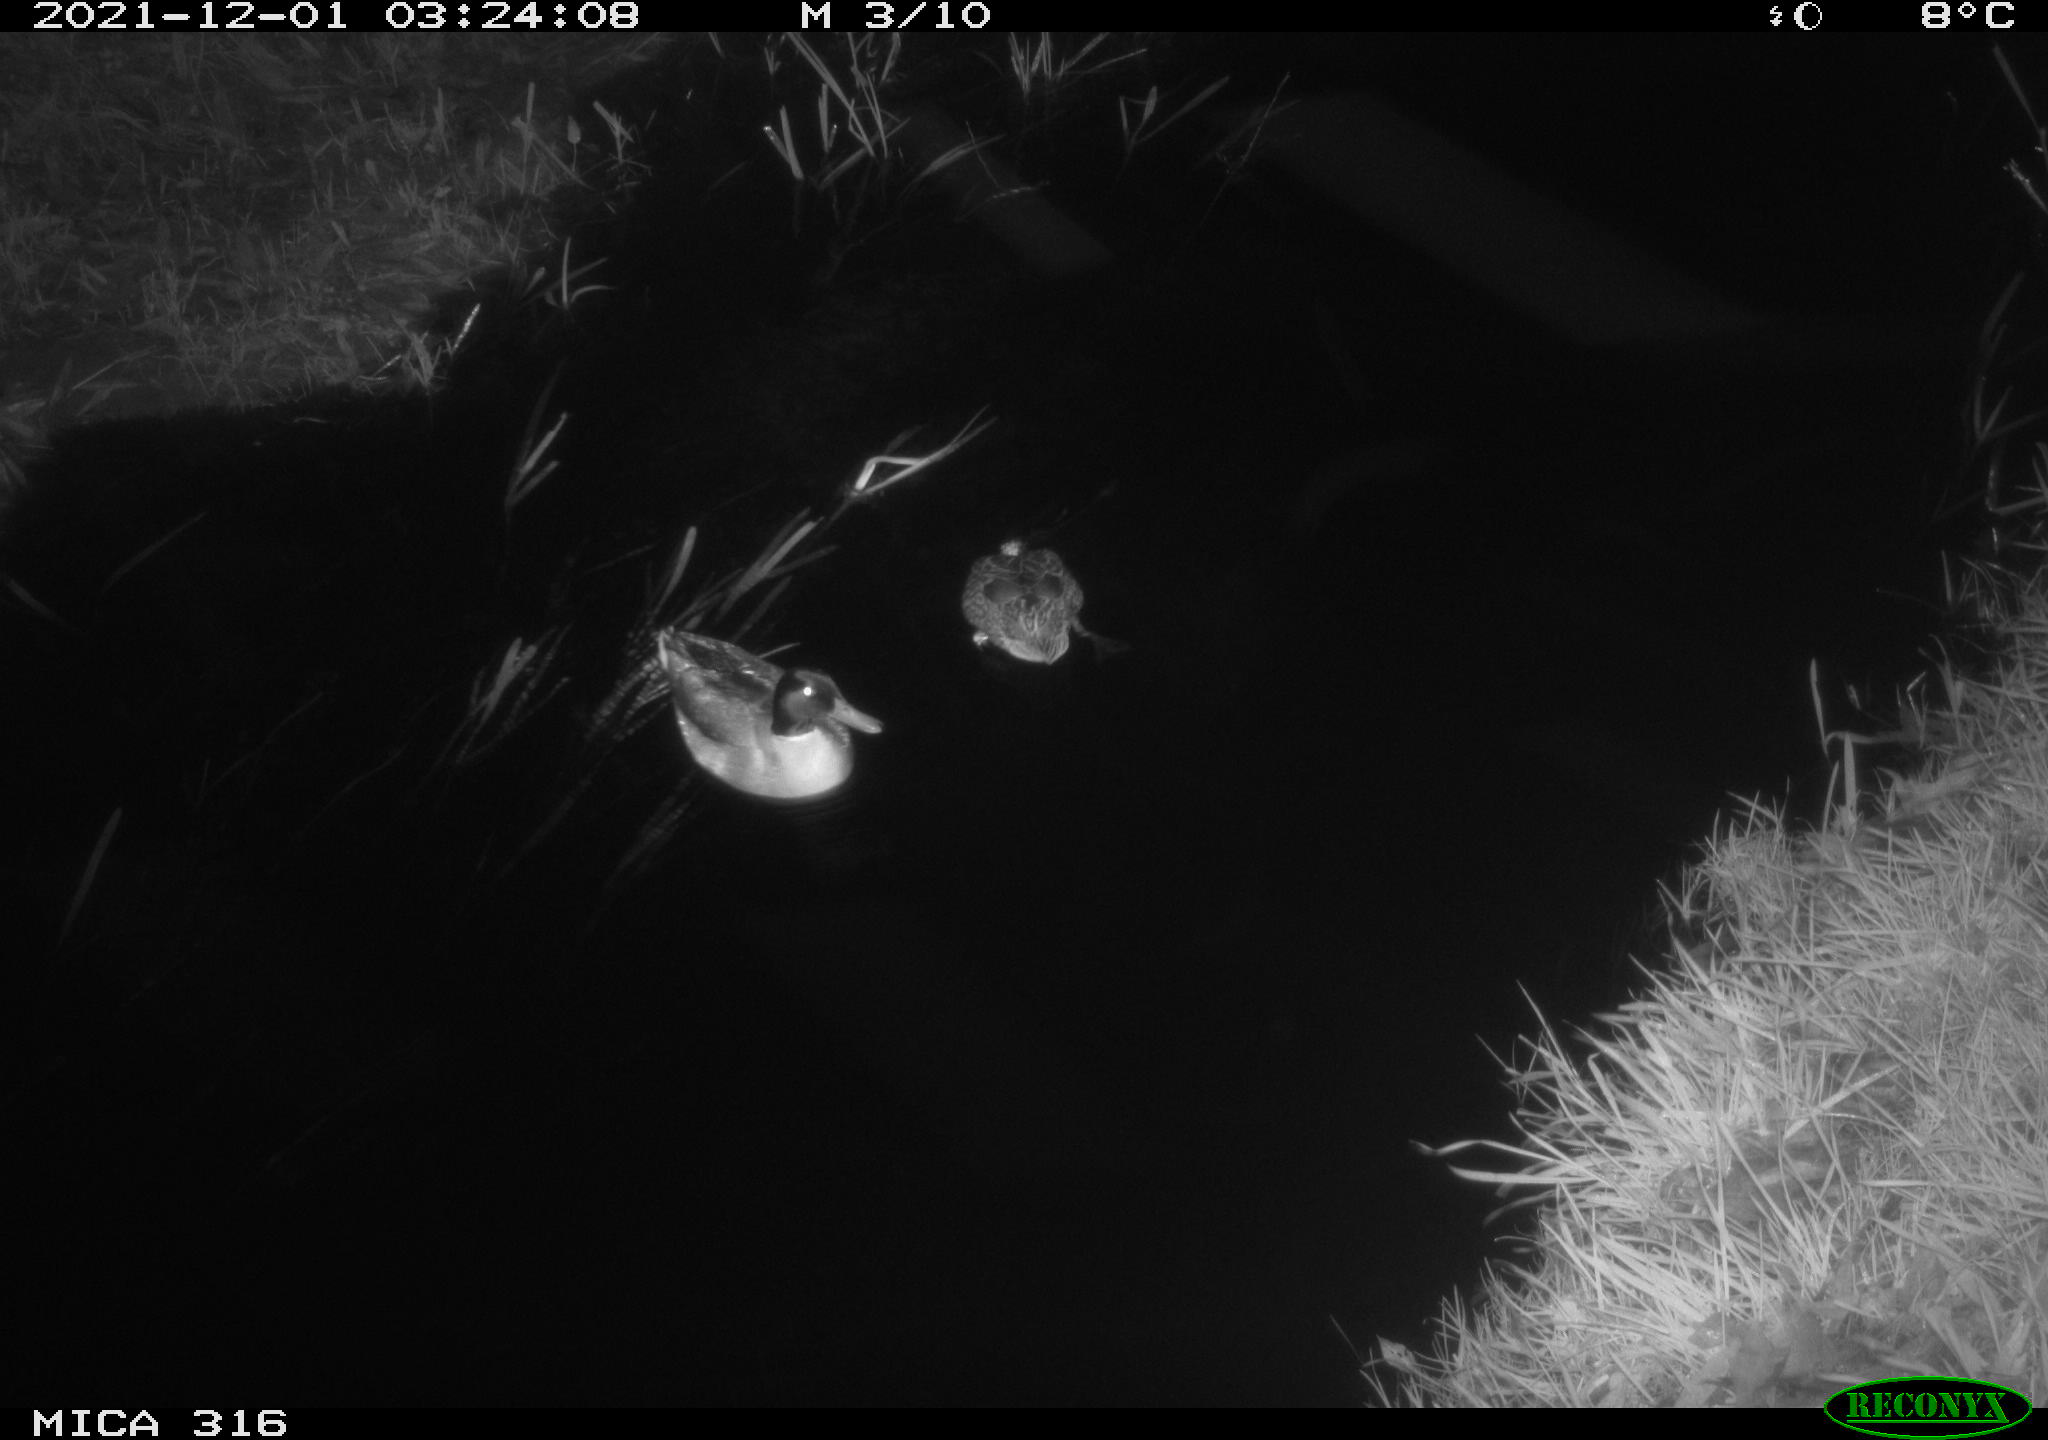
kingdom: Animalia
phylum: Chordata
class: Aves
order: Anseriformes
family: Anatidae
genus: Anas
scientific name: Anas platyrhynchos
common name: Mallard
